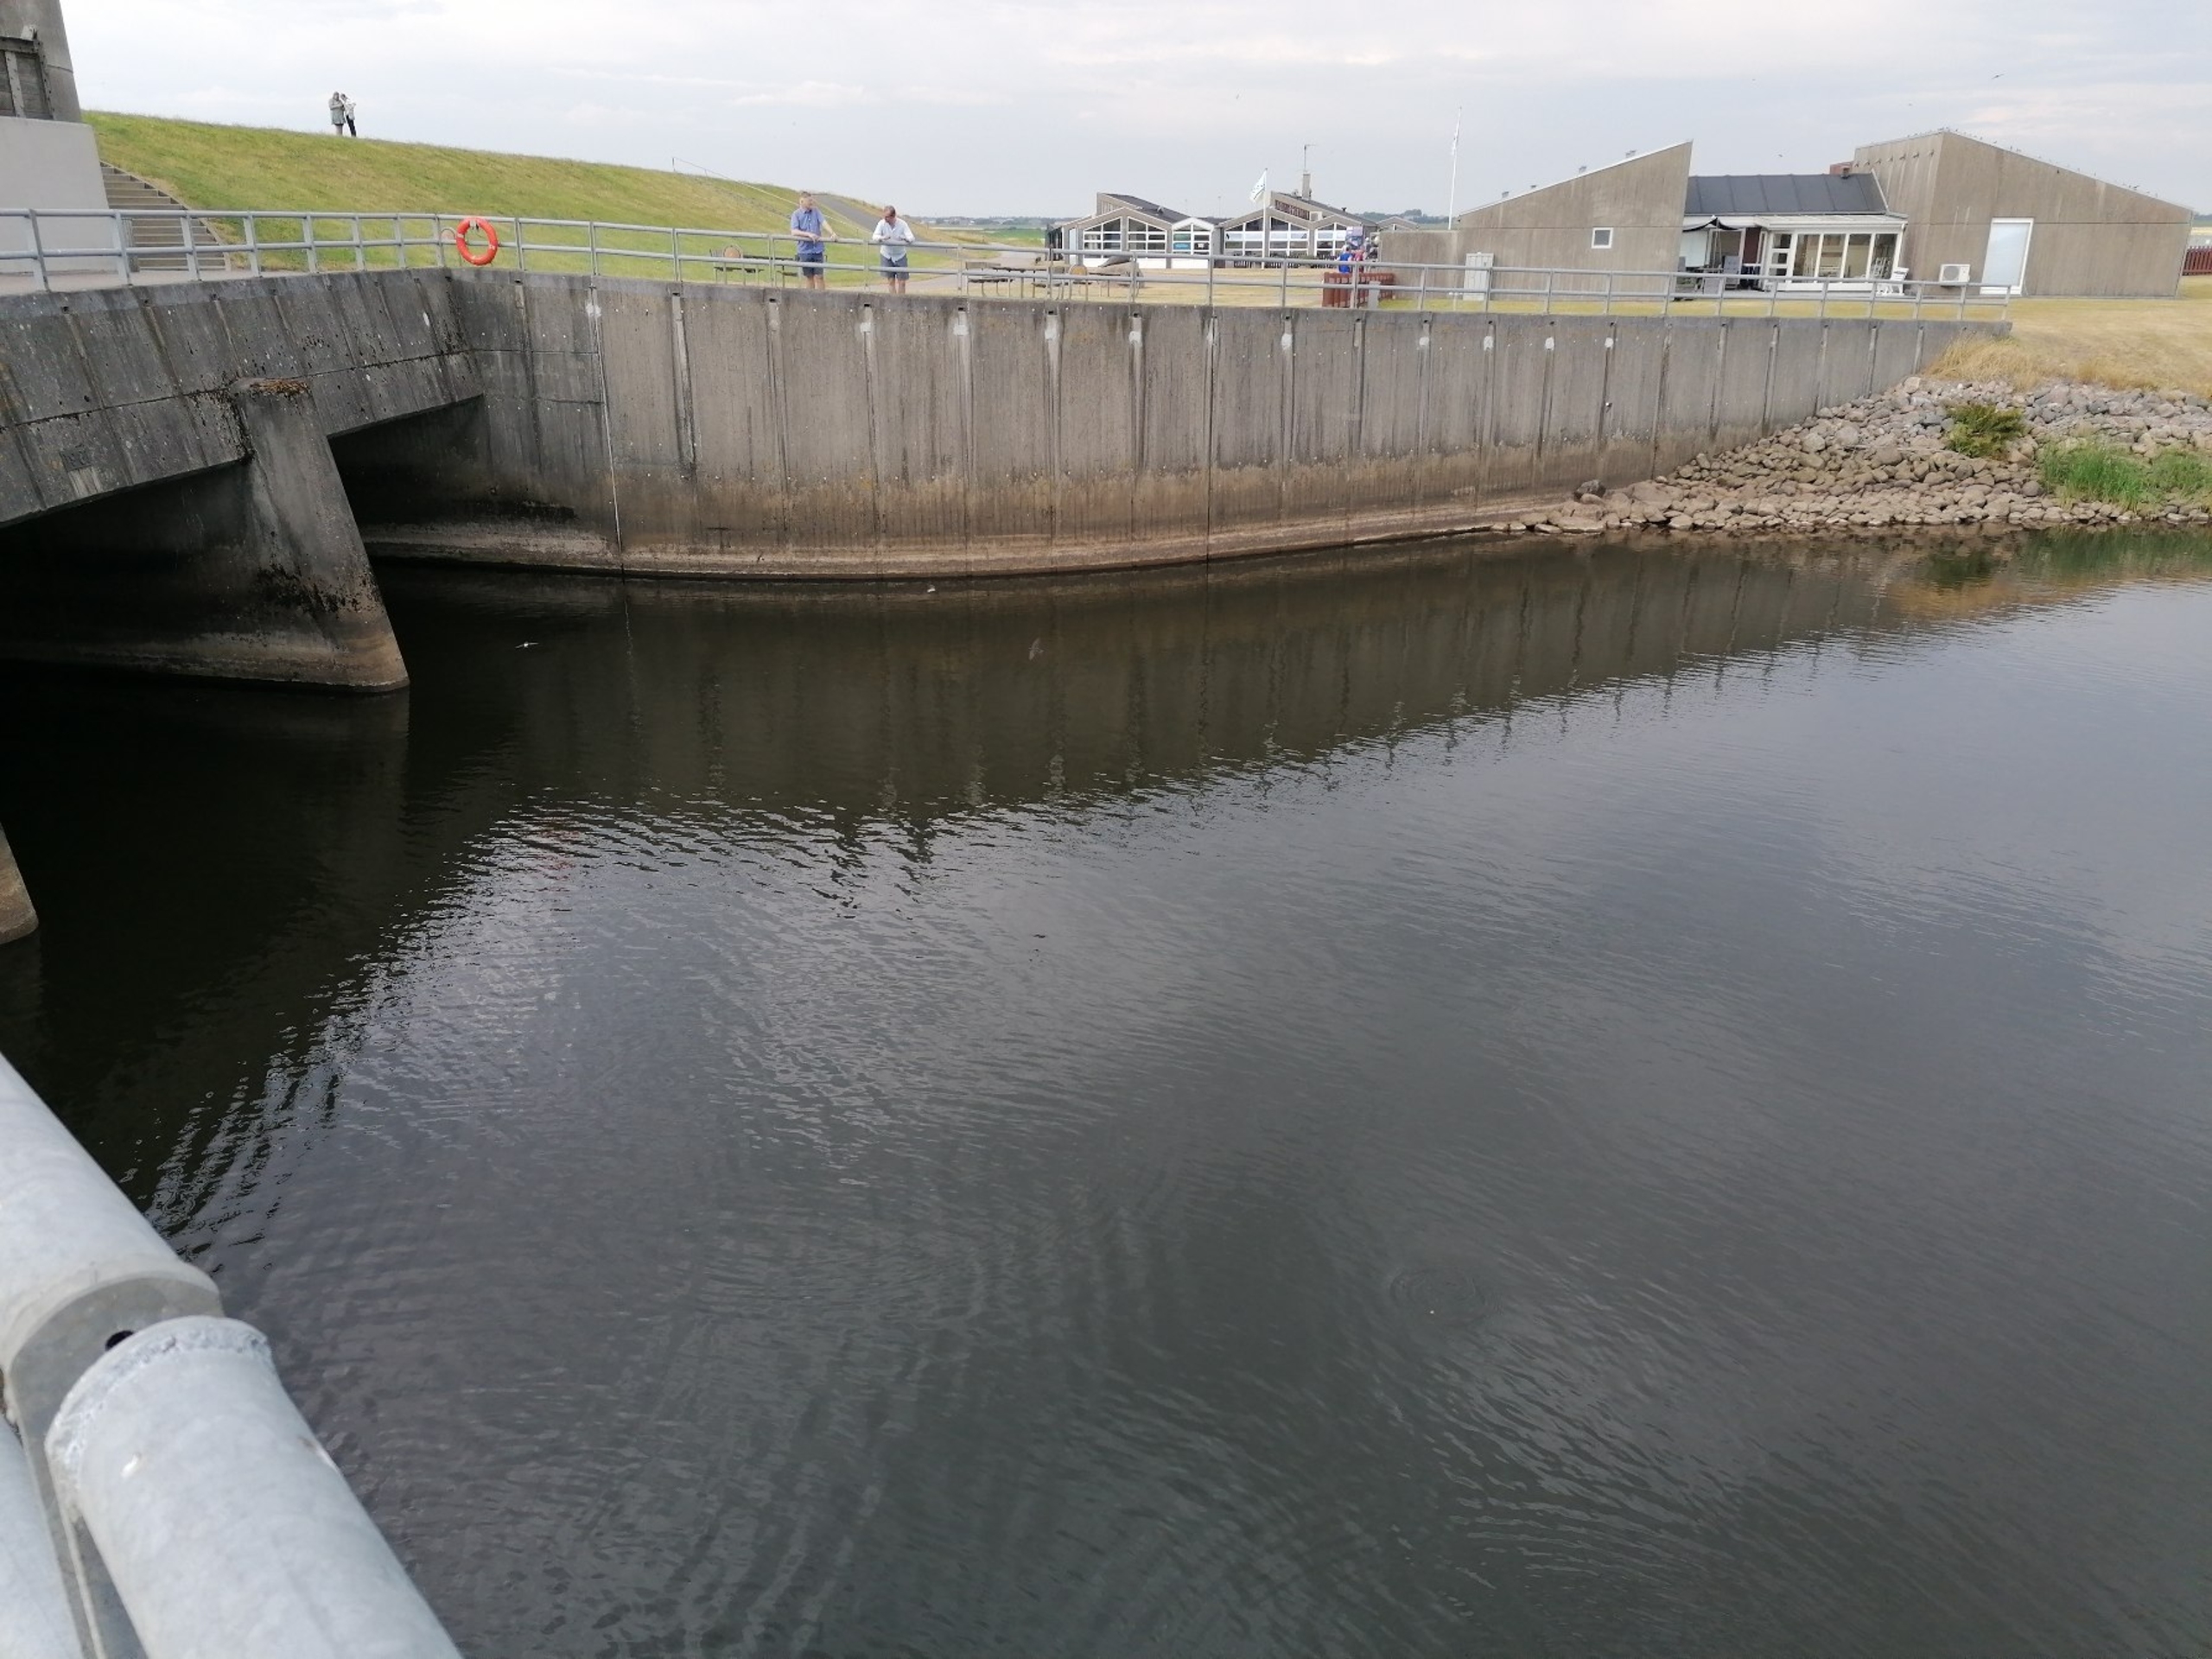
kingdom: Animalia
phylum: Chordata
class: Aves
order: Passeriformes
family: Hirundinidae
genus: Delichon
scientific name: Delichon urbicum
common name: Bysvale
